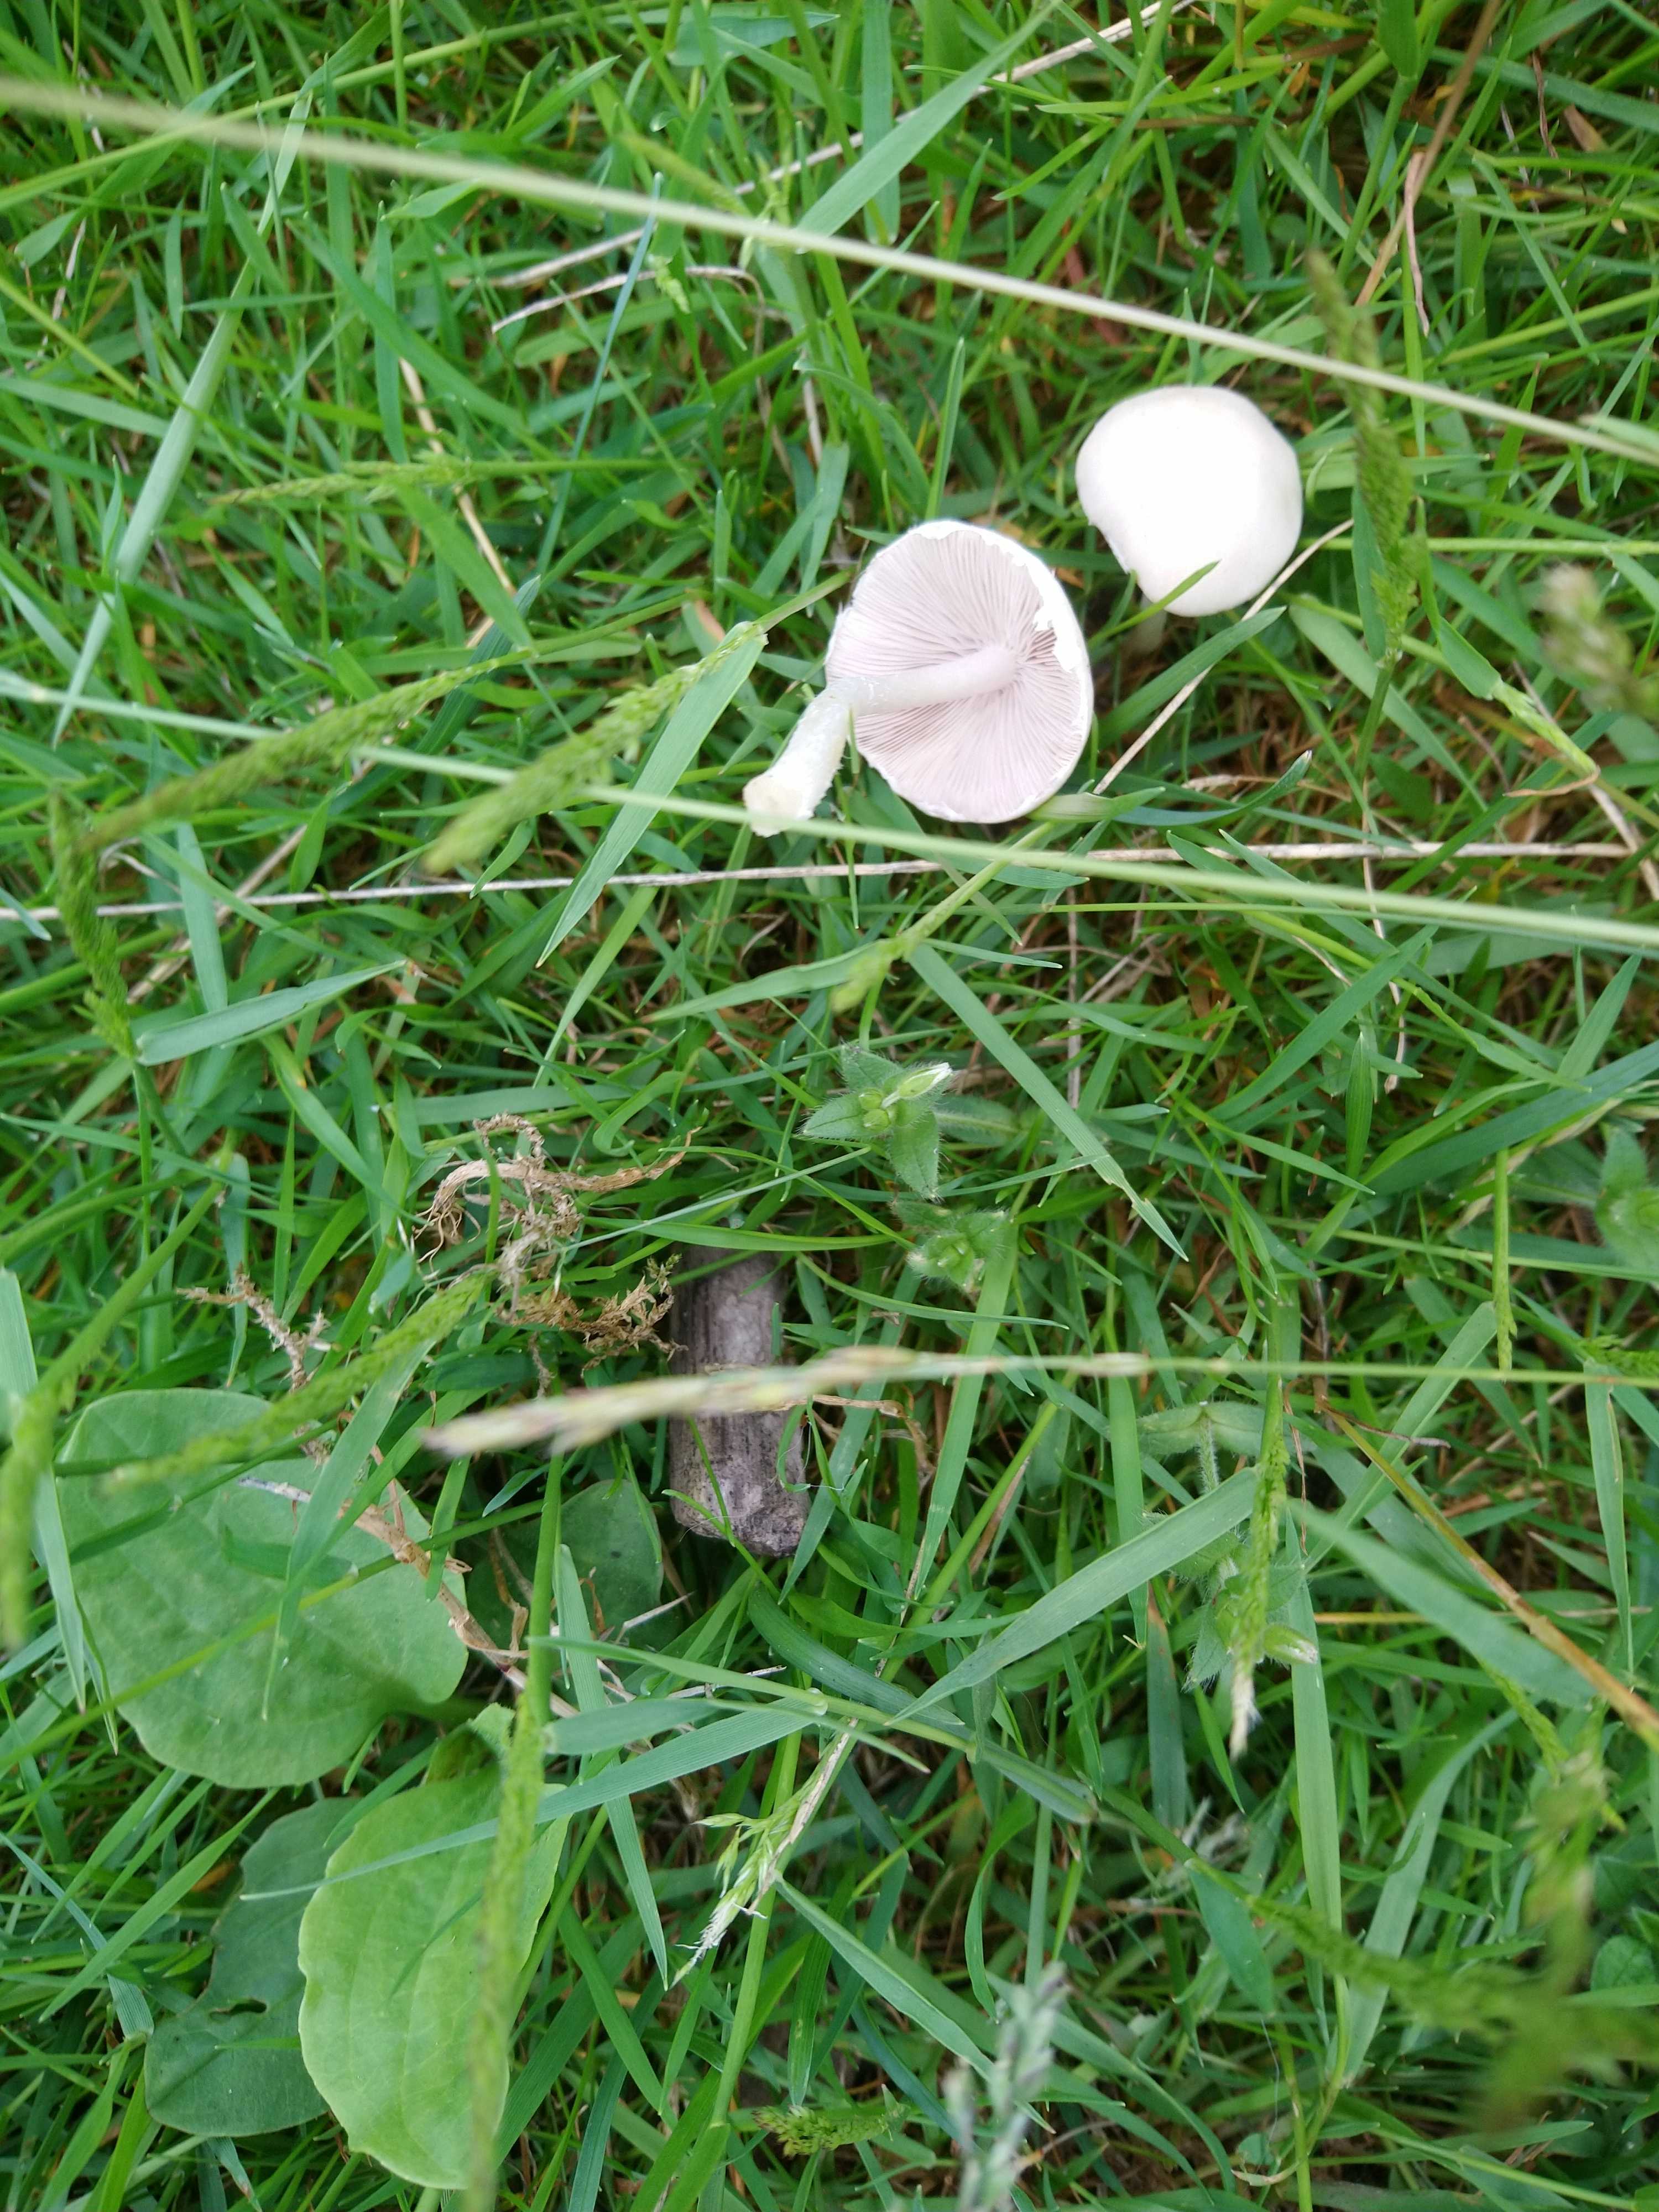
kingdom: Fungi
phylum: Basidiomycota
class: Agaricomycetes
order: Agaricales
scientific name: Agaricales
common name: champignonordenen
